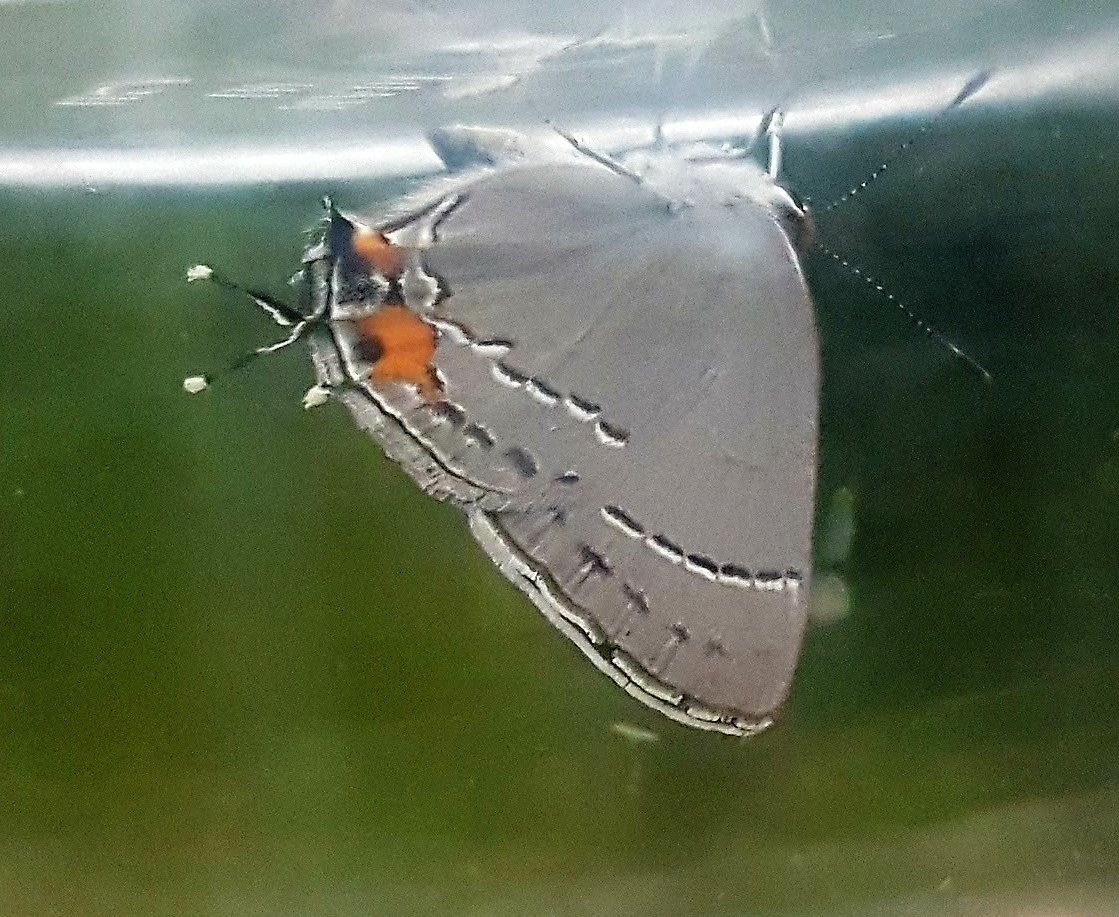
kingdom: Animalia
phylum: Arthropoda
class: Insecta
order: Lepidoptera
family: Lycaenidae
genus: Strymon
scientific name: Strymon melinus
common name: Gray Hairstreak
